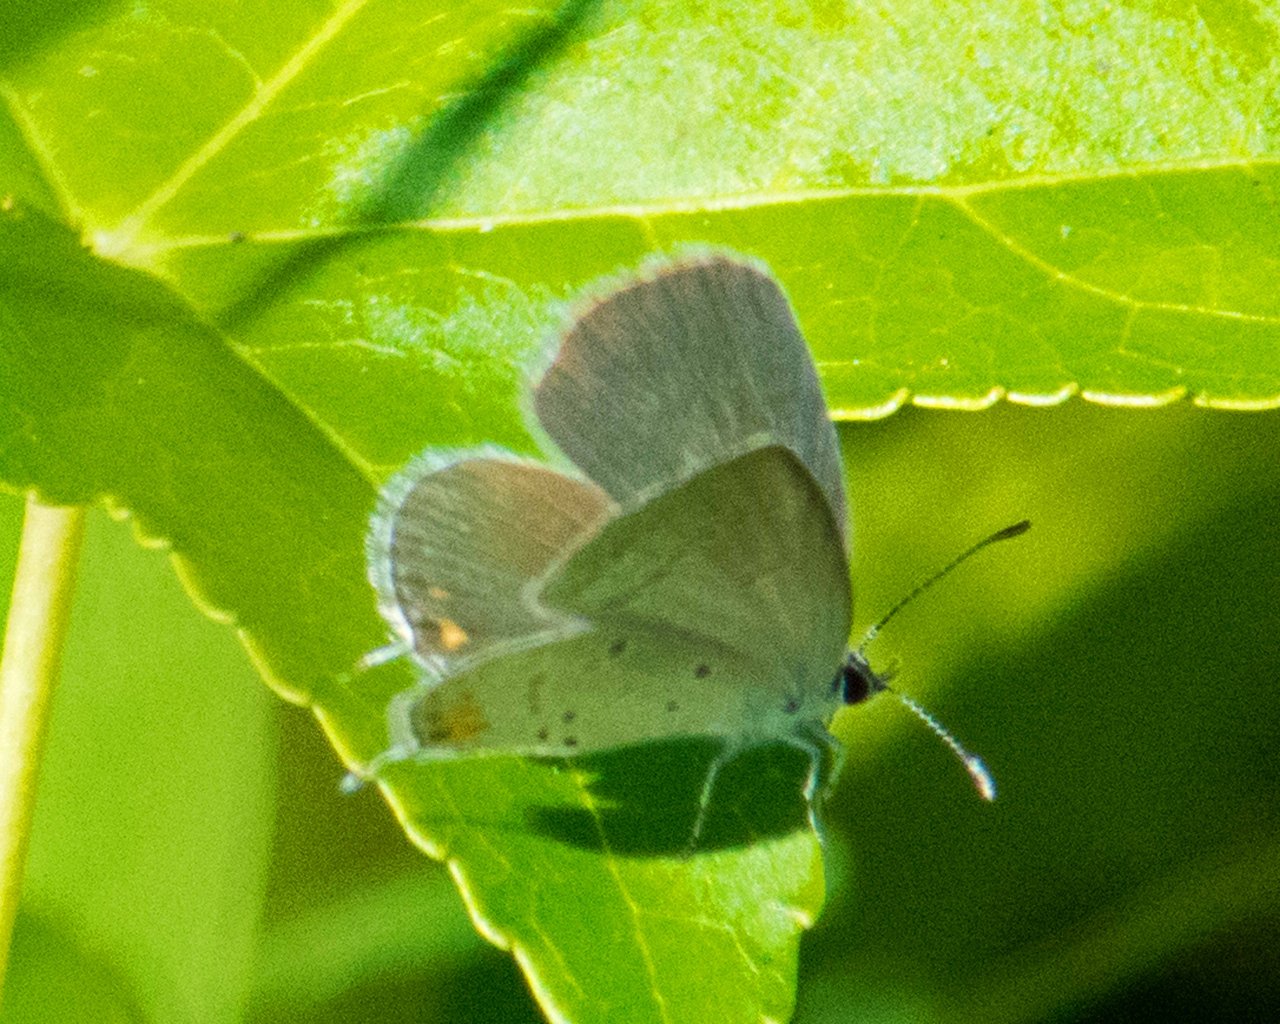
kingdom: Animalia
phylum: Arthropoda
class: Insecta
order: Lepidoptera
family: Lycaenidae
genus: Elkalyce
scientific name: Elkalyce comyntas
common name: Eastern Tailed-Blue
